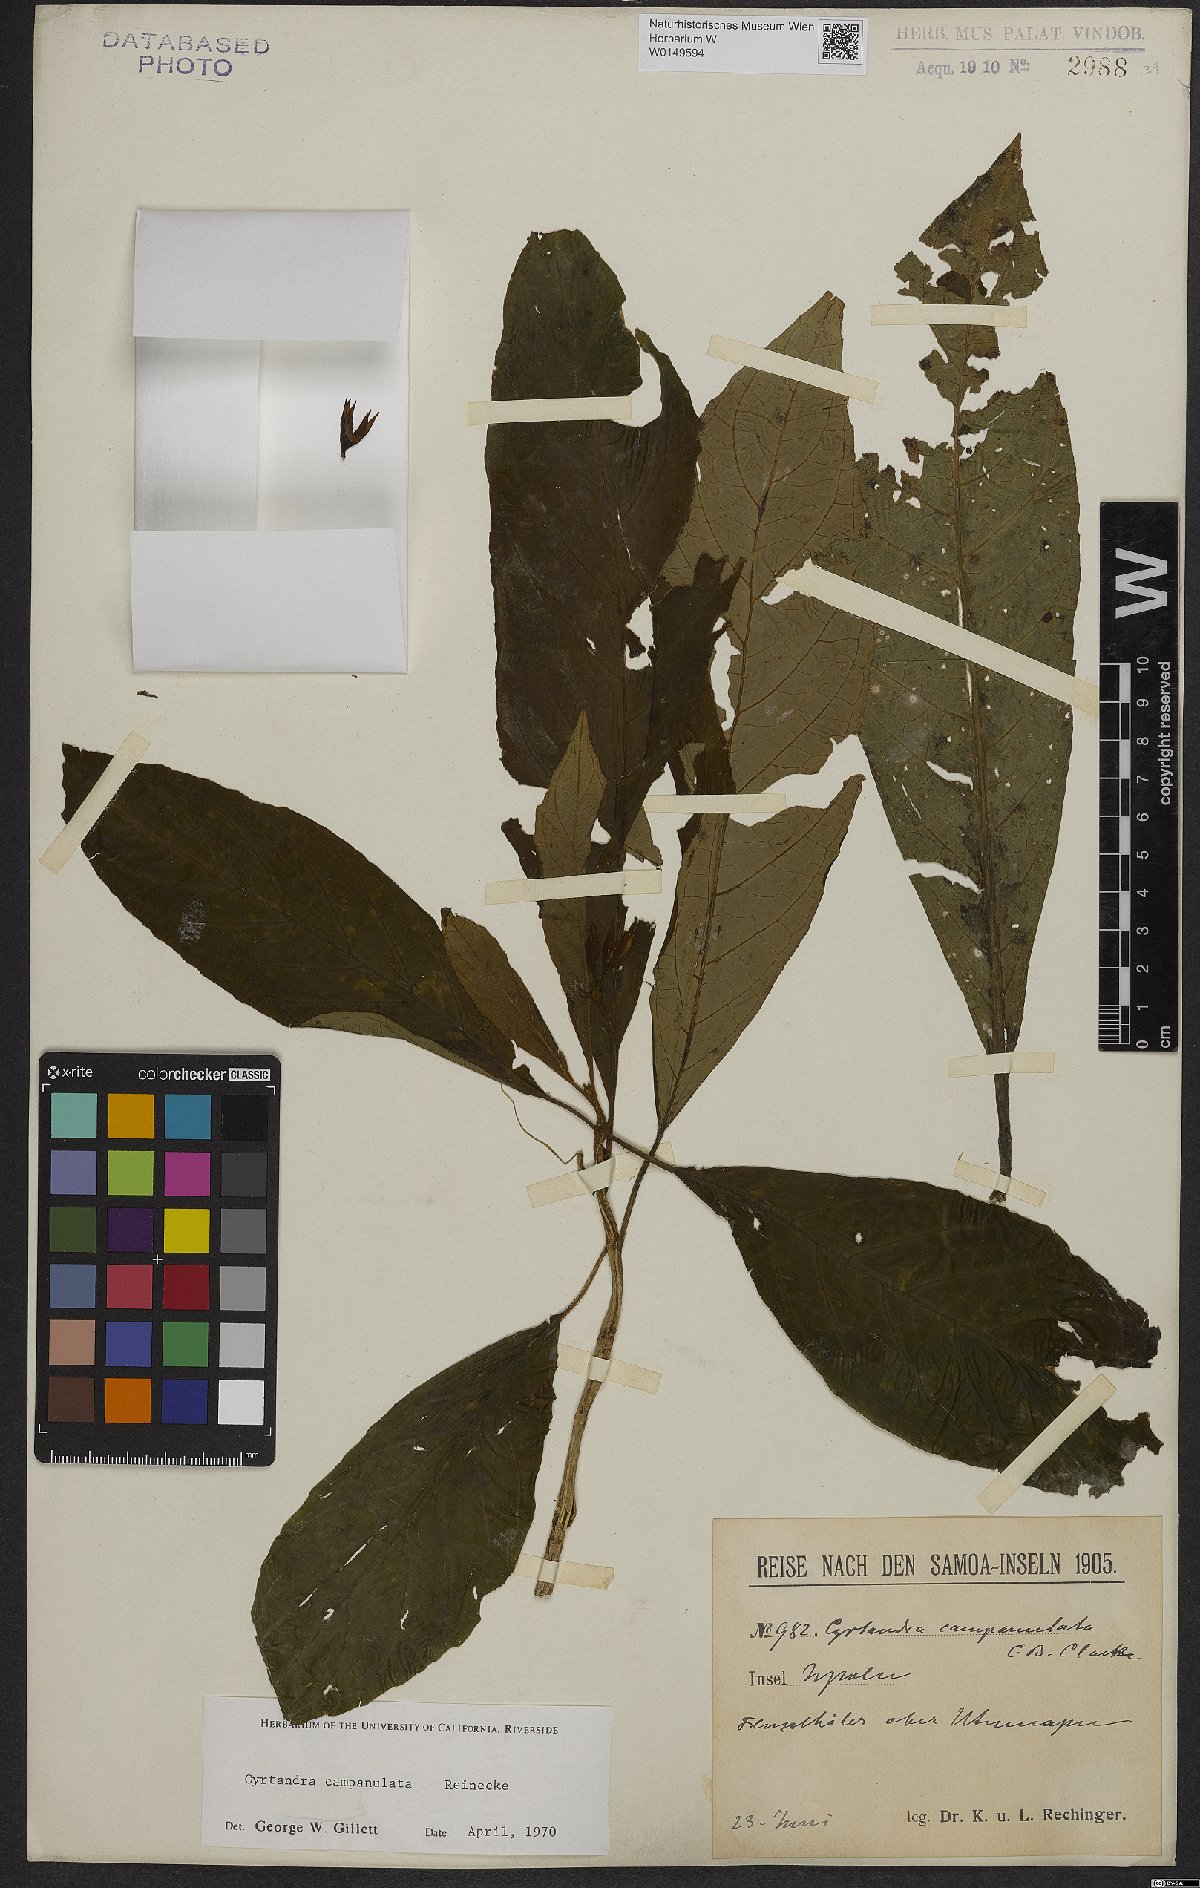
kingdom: Plantae
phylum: Tracheophyta
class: Magnoliopsida
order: Lamiales
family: Gesneriaceae
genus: Cyrtandra
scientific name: Cyrtandra campanulata
